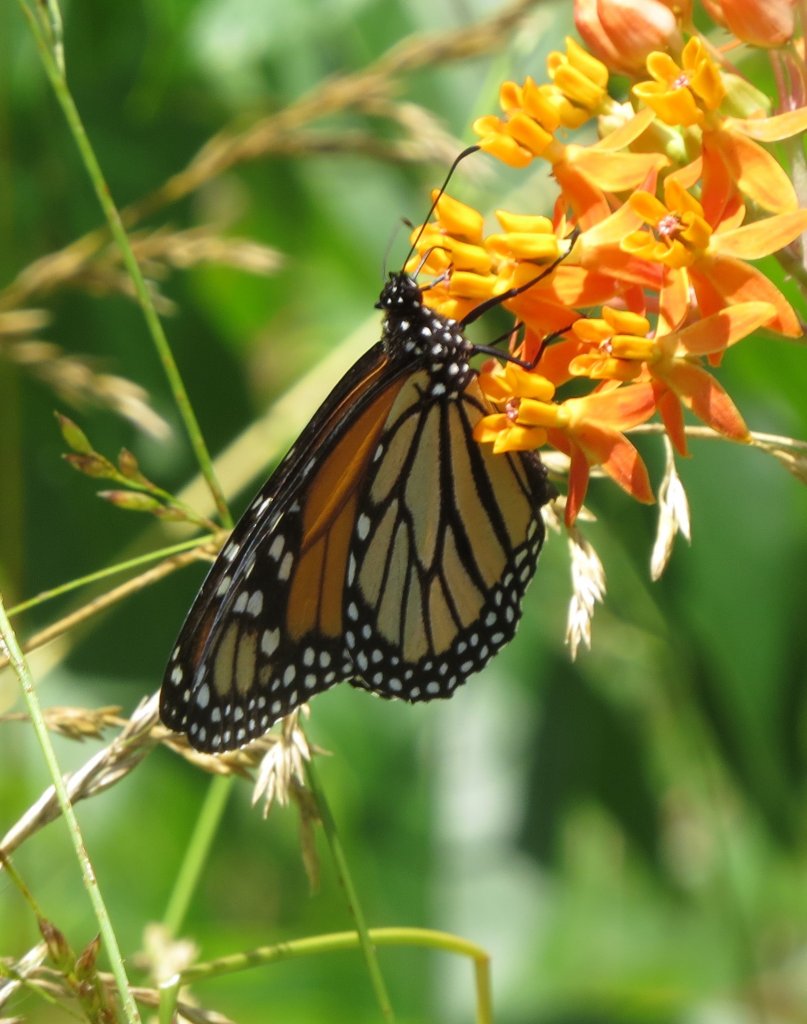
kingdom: Animalia
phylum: Arthropoda
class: Insecta
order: Lepidoptera
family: Nymphalidae
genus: Danaus
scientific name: Danaus plexippus
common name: Monarch
